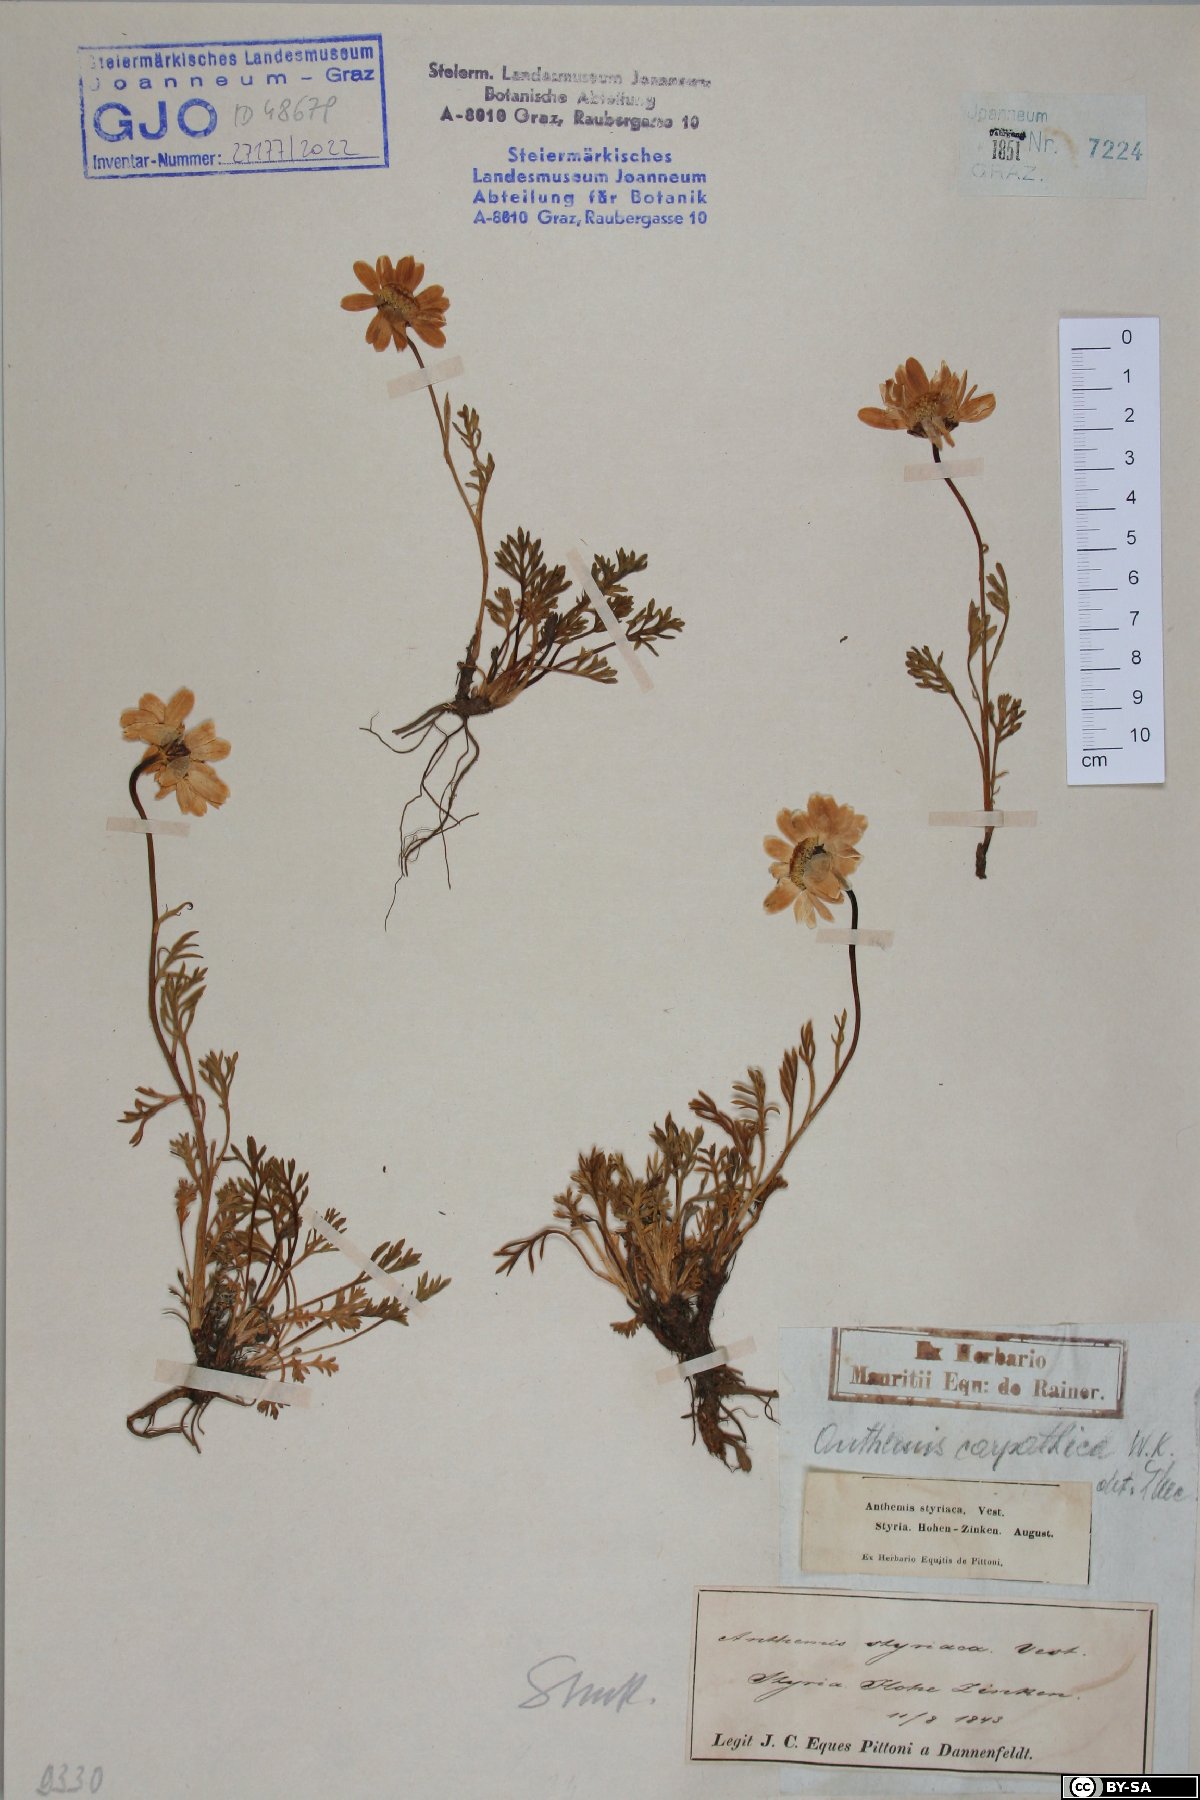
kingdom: Plantae
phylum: Tracheophyta
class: Magnoliopsida
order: Asterales
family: Asteraceae
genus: Anthemis
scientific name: Anthemis cretica
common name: Mountain dog-daisy
